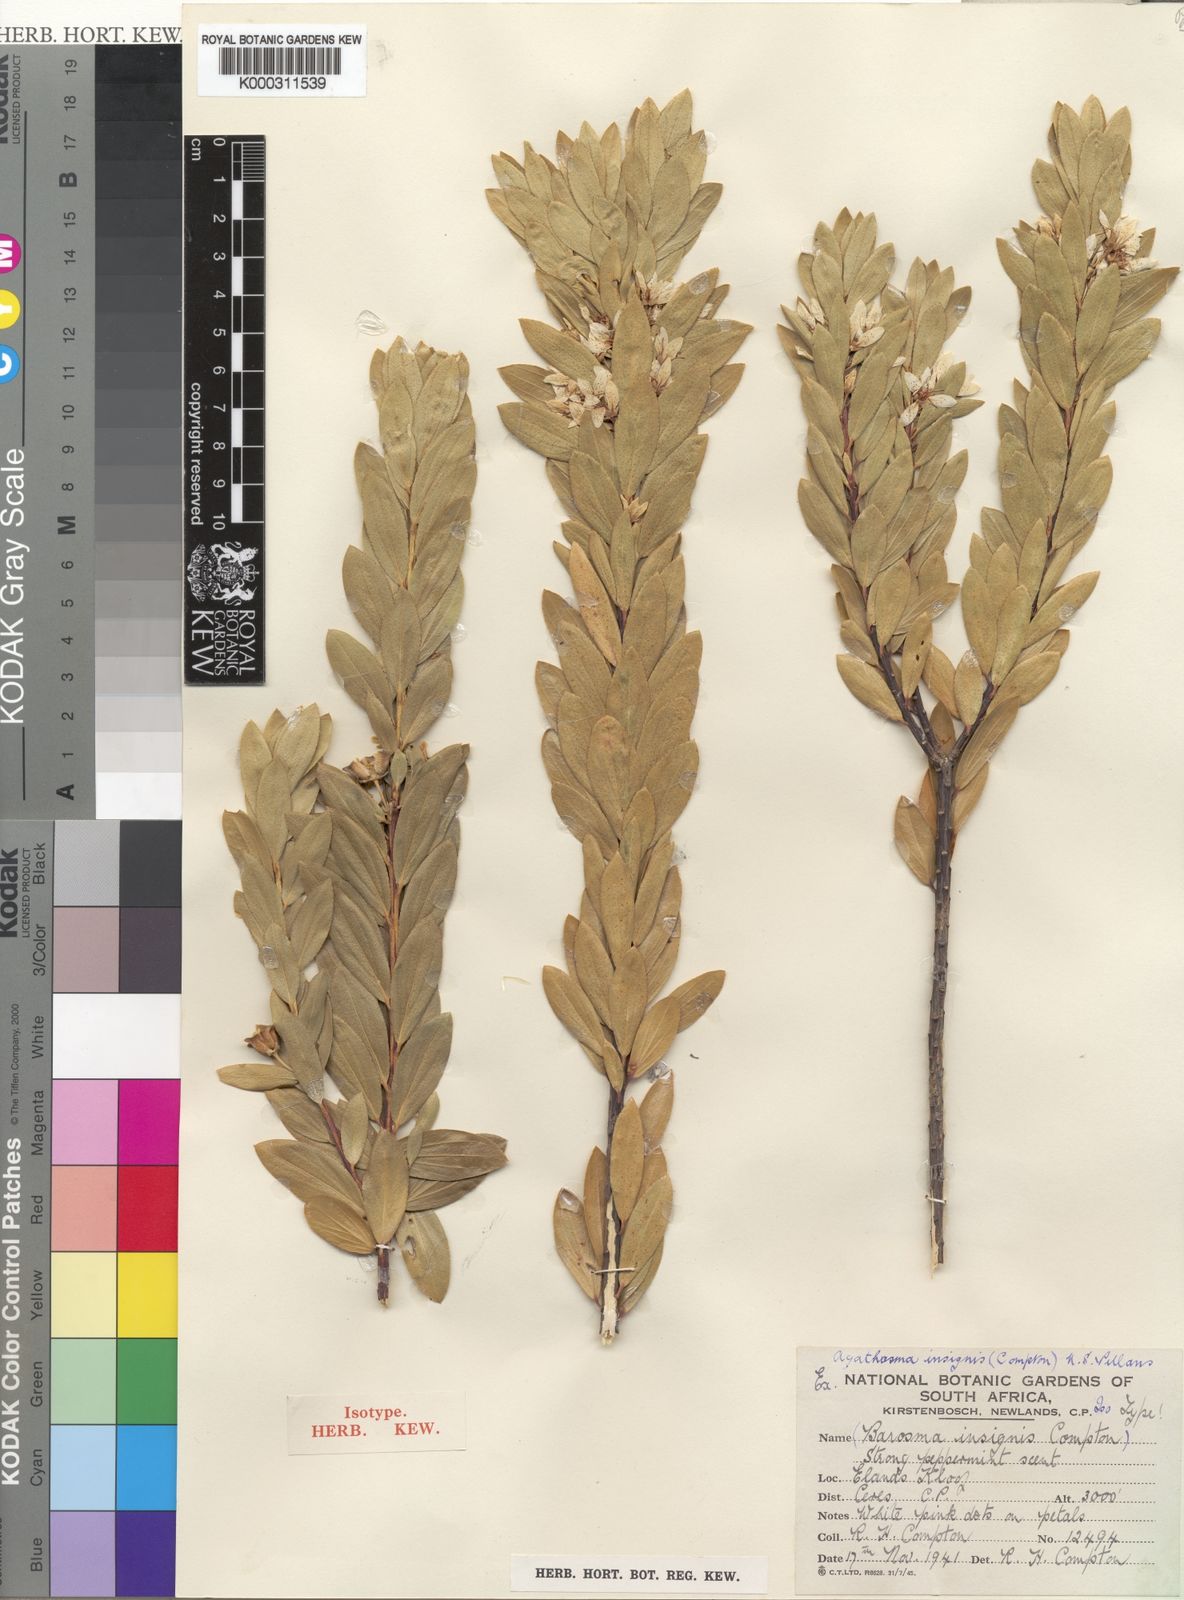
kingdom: Plantae
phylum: Tracheophyta
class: Magnoliopsida
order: Sapindales
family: Rutaceae
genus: Agathosma
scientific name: Agathosma insignis
